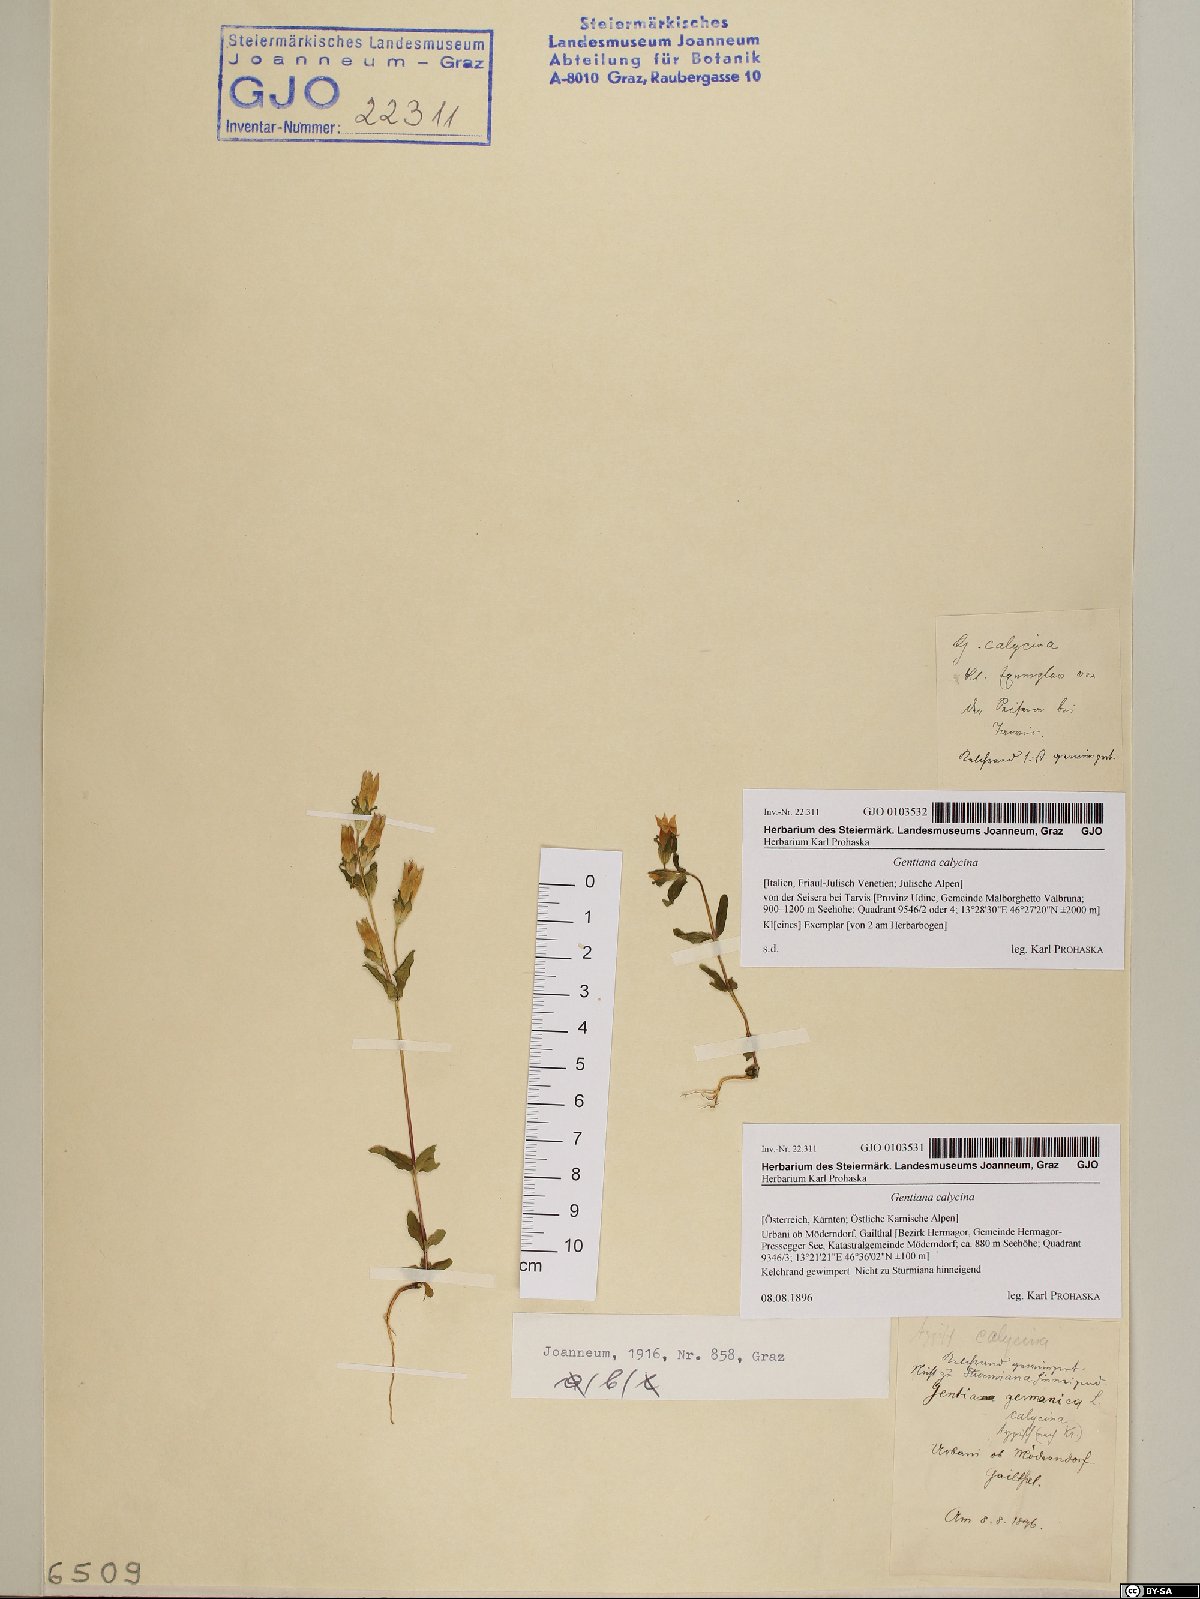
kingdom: Plantae
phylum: Tracheophyta
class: Magnoliopsida
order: Gentianales
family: Gentianaceae
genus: Gentianella
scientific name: Gentianella germanica
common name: Chiltern-gentian
